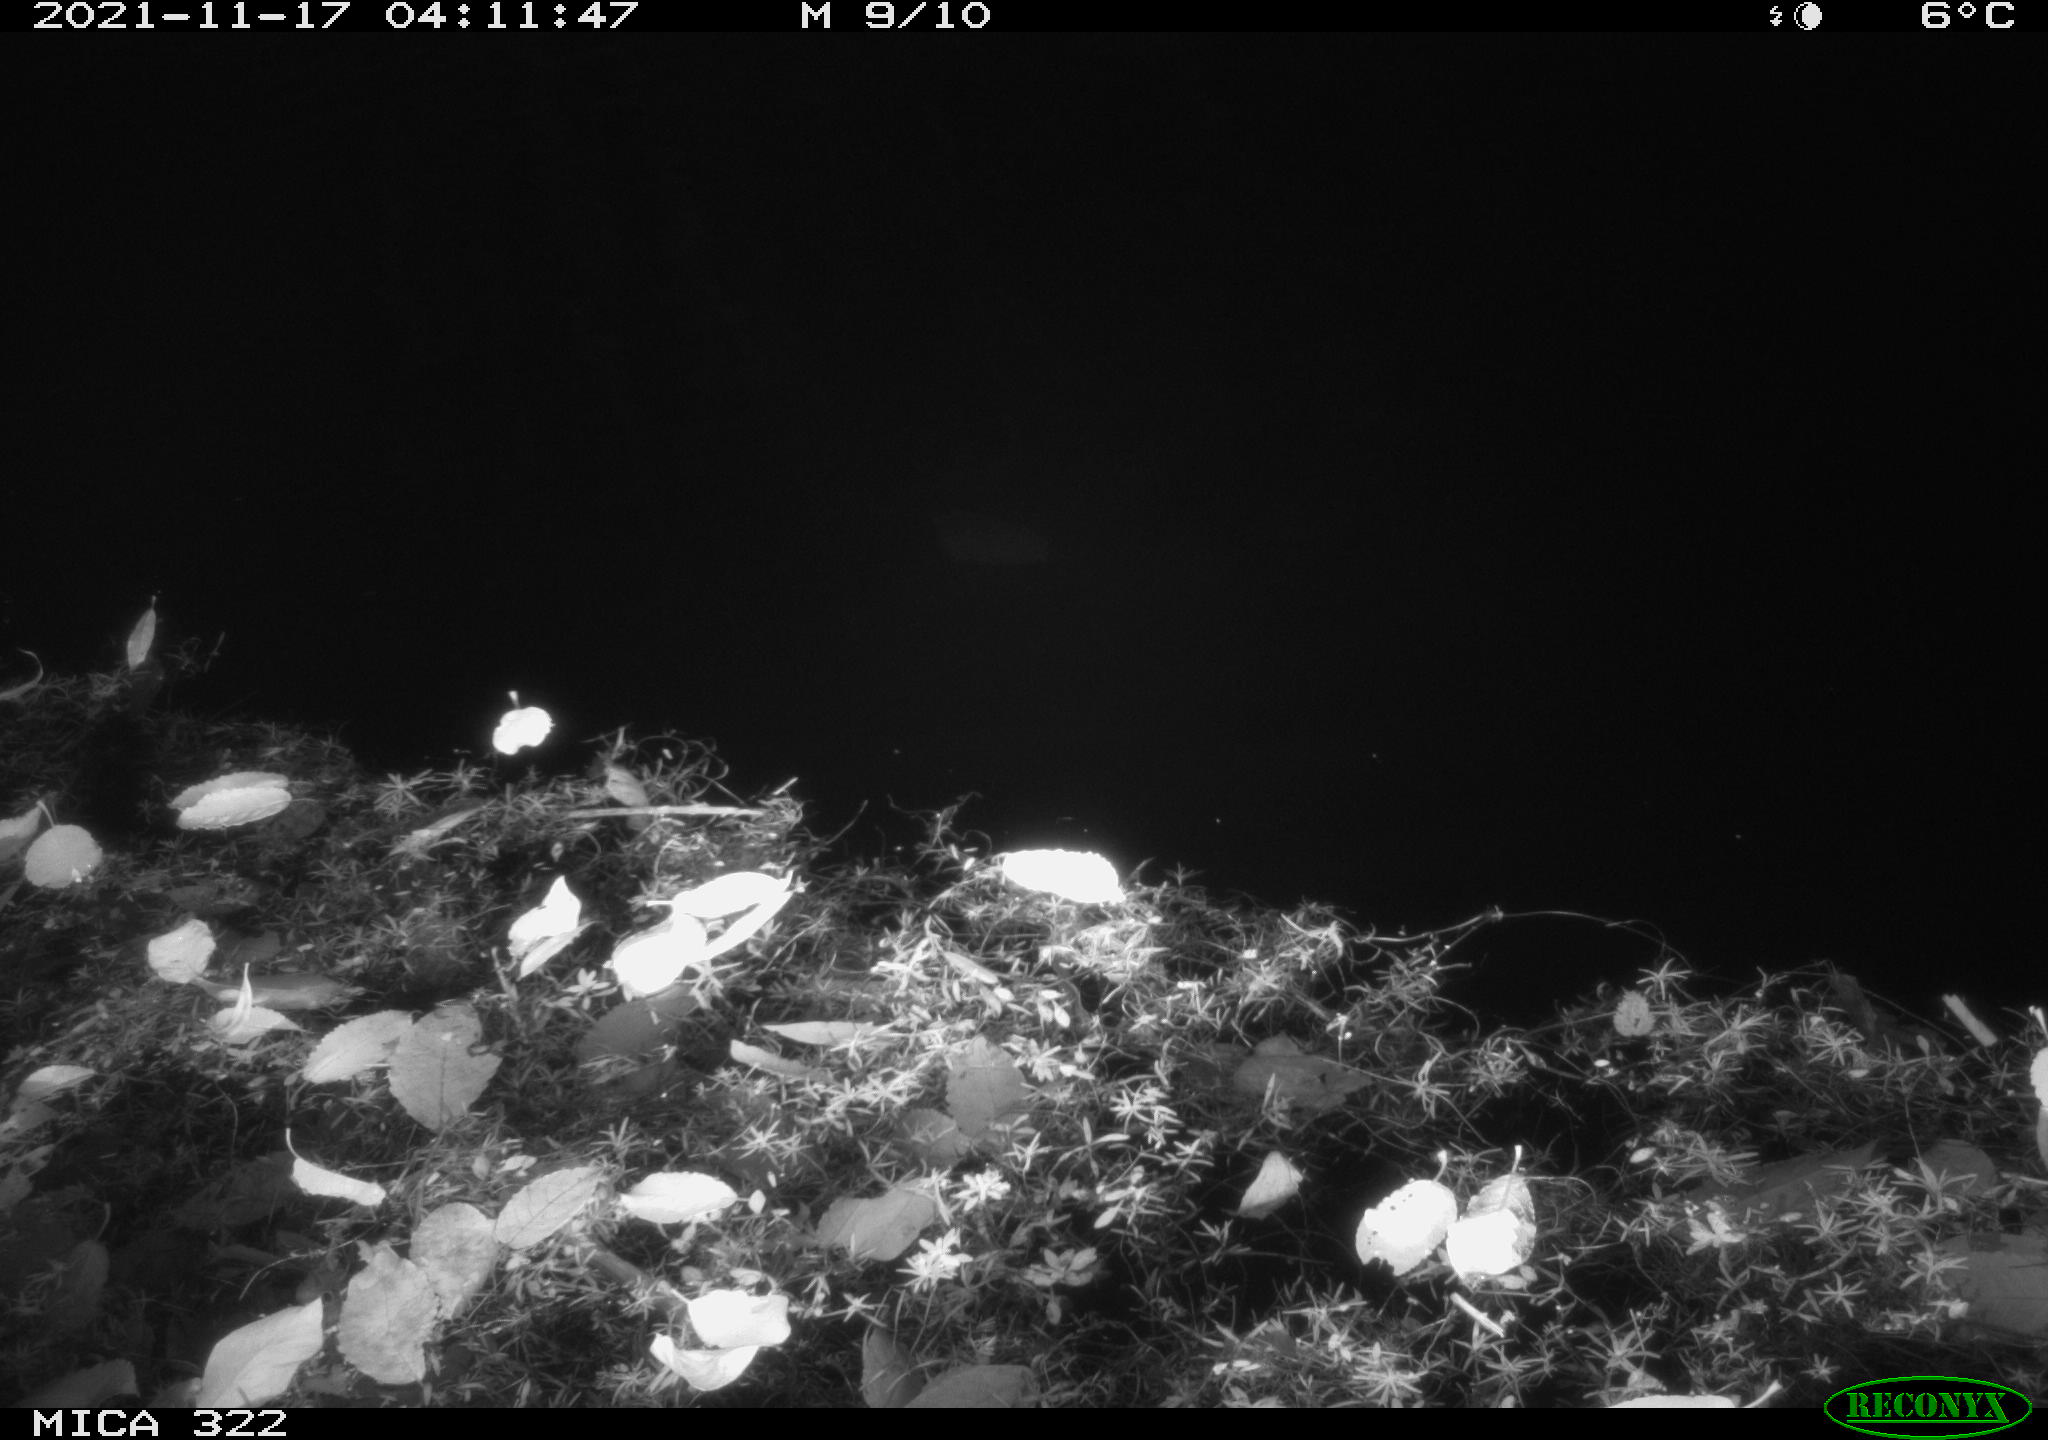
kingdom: Animalia
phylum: Chordata
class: Mammalia
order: Rodentia
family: Muridae
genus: Rattus
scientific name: Rattus norvegicus
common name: Brown rat
